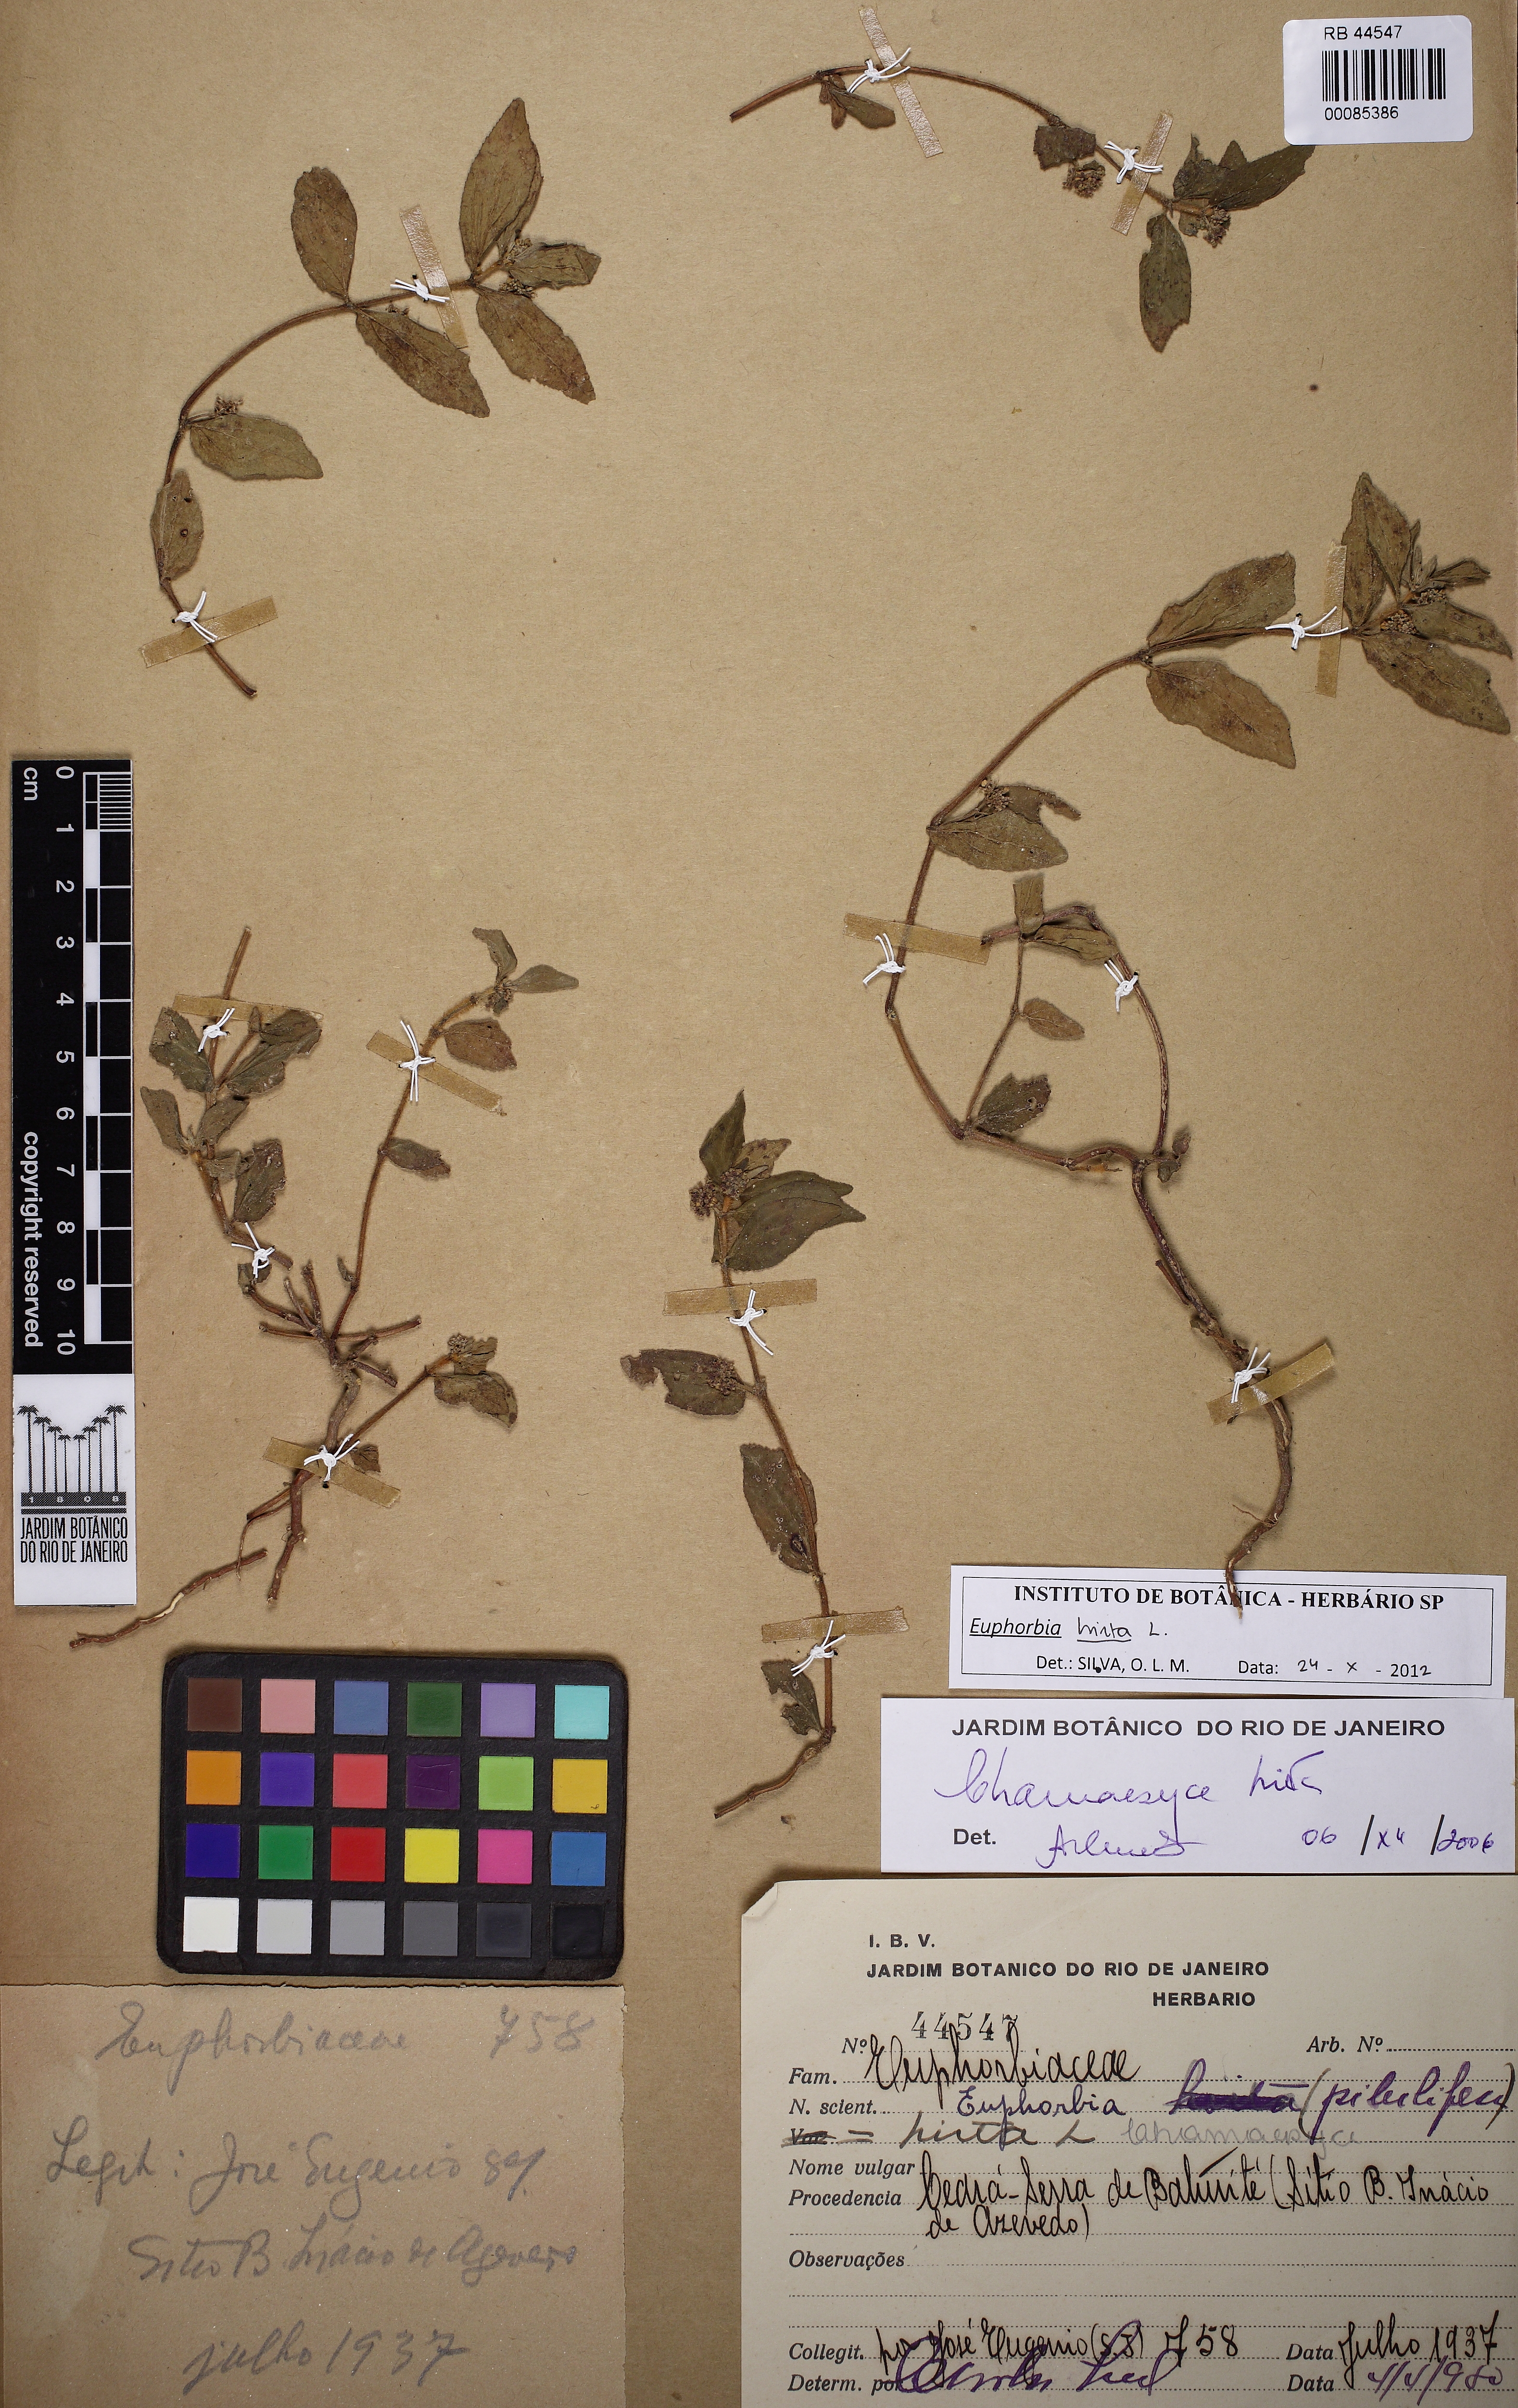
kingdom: Plantae
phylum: Tracheophyta
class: Magnoliopsida
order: Malpighiales
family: Euphorbiaceae
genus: Euphorbia
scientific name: Euphorbia hirta
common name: Pillpod sandmat
